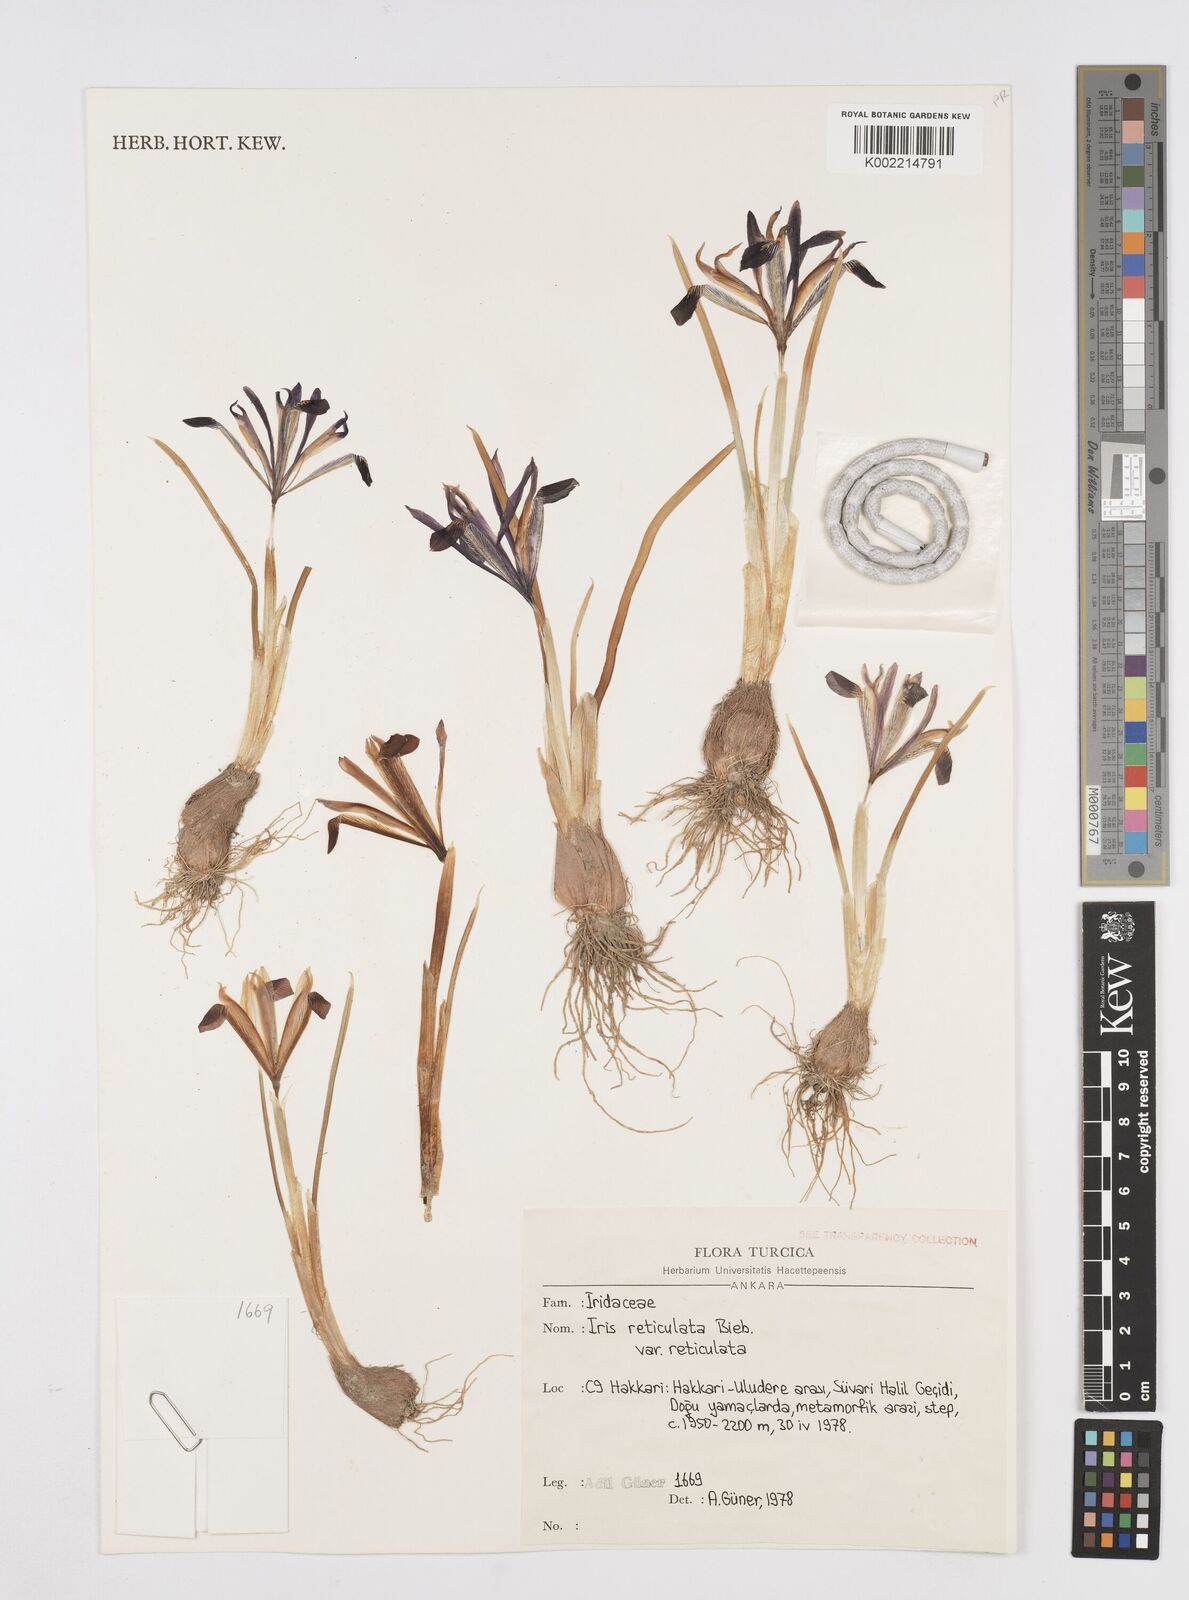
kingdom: Plantae
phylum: Tracheophyta
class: Liliopsida
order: Asparagales
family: Iridaceae
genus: Iris
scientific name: Iris reticulata
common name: Netted iris
